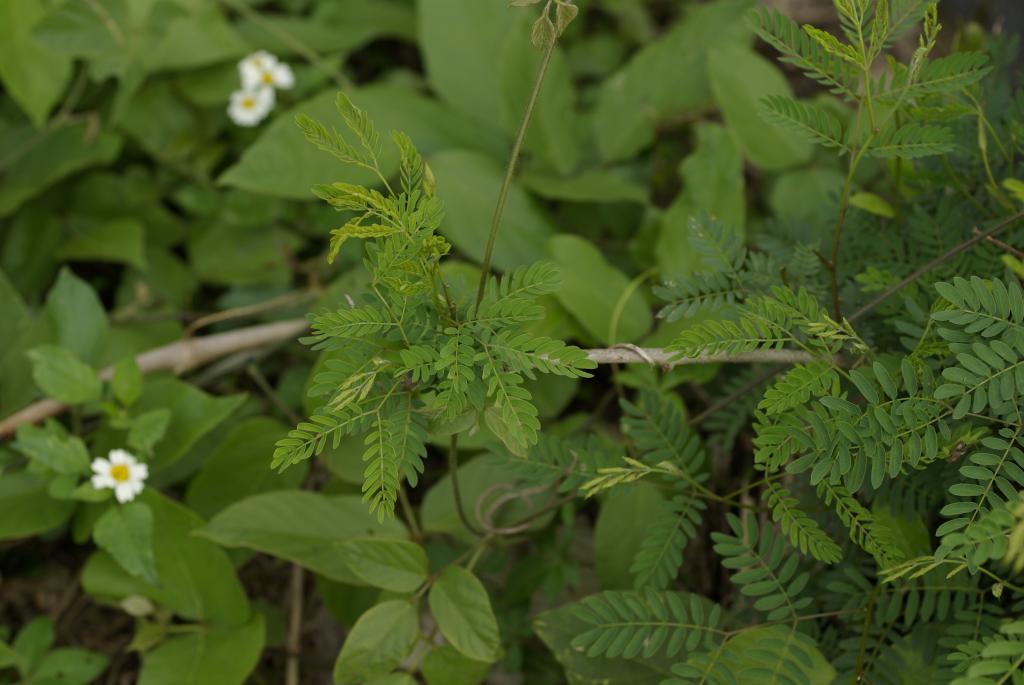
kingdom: Plantae
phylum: Tracheophyta
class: Magnoliopsida
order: Fabales
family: Fabaceae
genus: Leucaena
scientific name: Leucaena leucocephala
